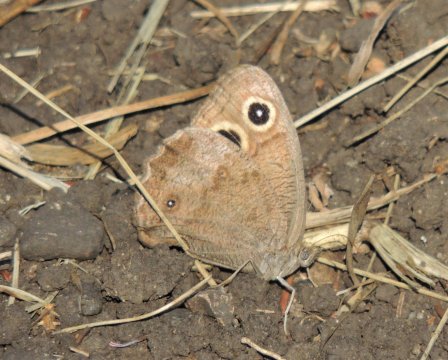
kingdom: Animalia
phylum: Arthropoda
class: Insecta
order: Lepidoptera
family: Nymphalidae
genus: Cercyonis
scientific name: Cercyonis pegala
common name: Common Wood-Nymph
